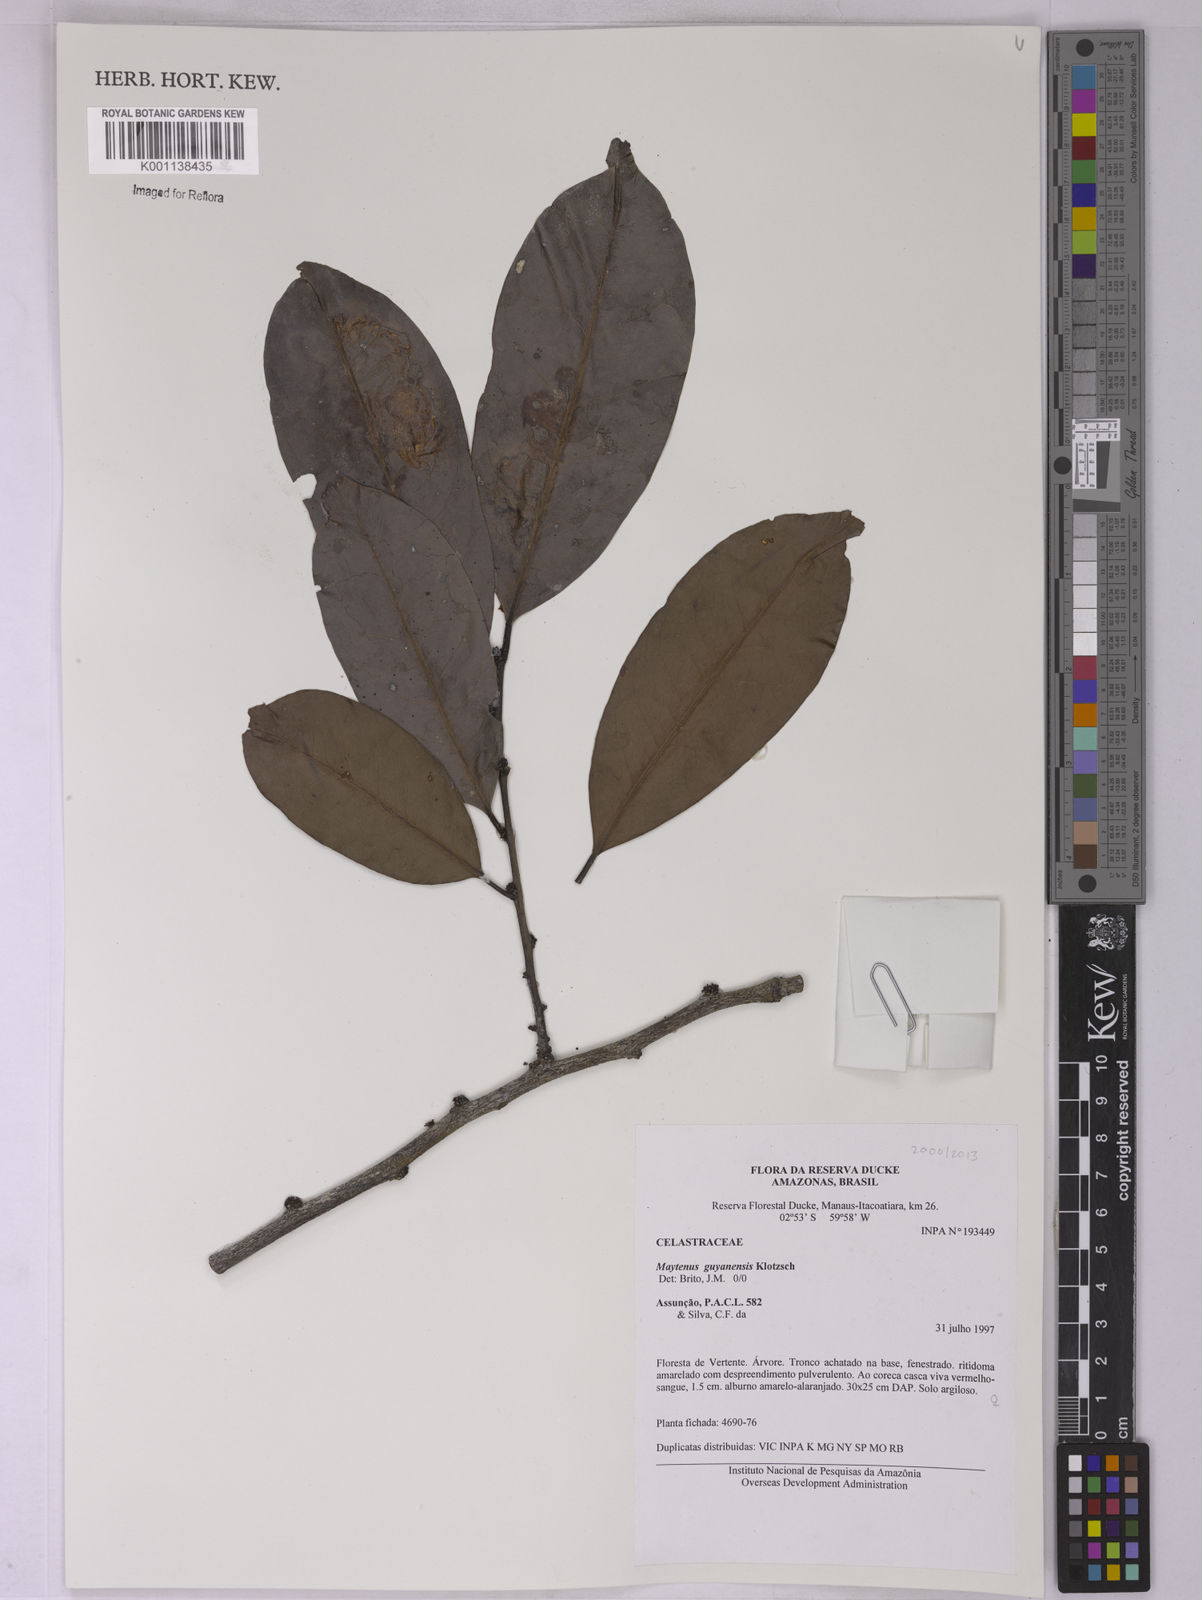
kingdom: Plantae
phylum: Tracheophyta
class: Magnoliopsida
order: Celastrales
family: Celastraceae
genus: Monteverdia
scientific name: Monteverdia guyanensis
